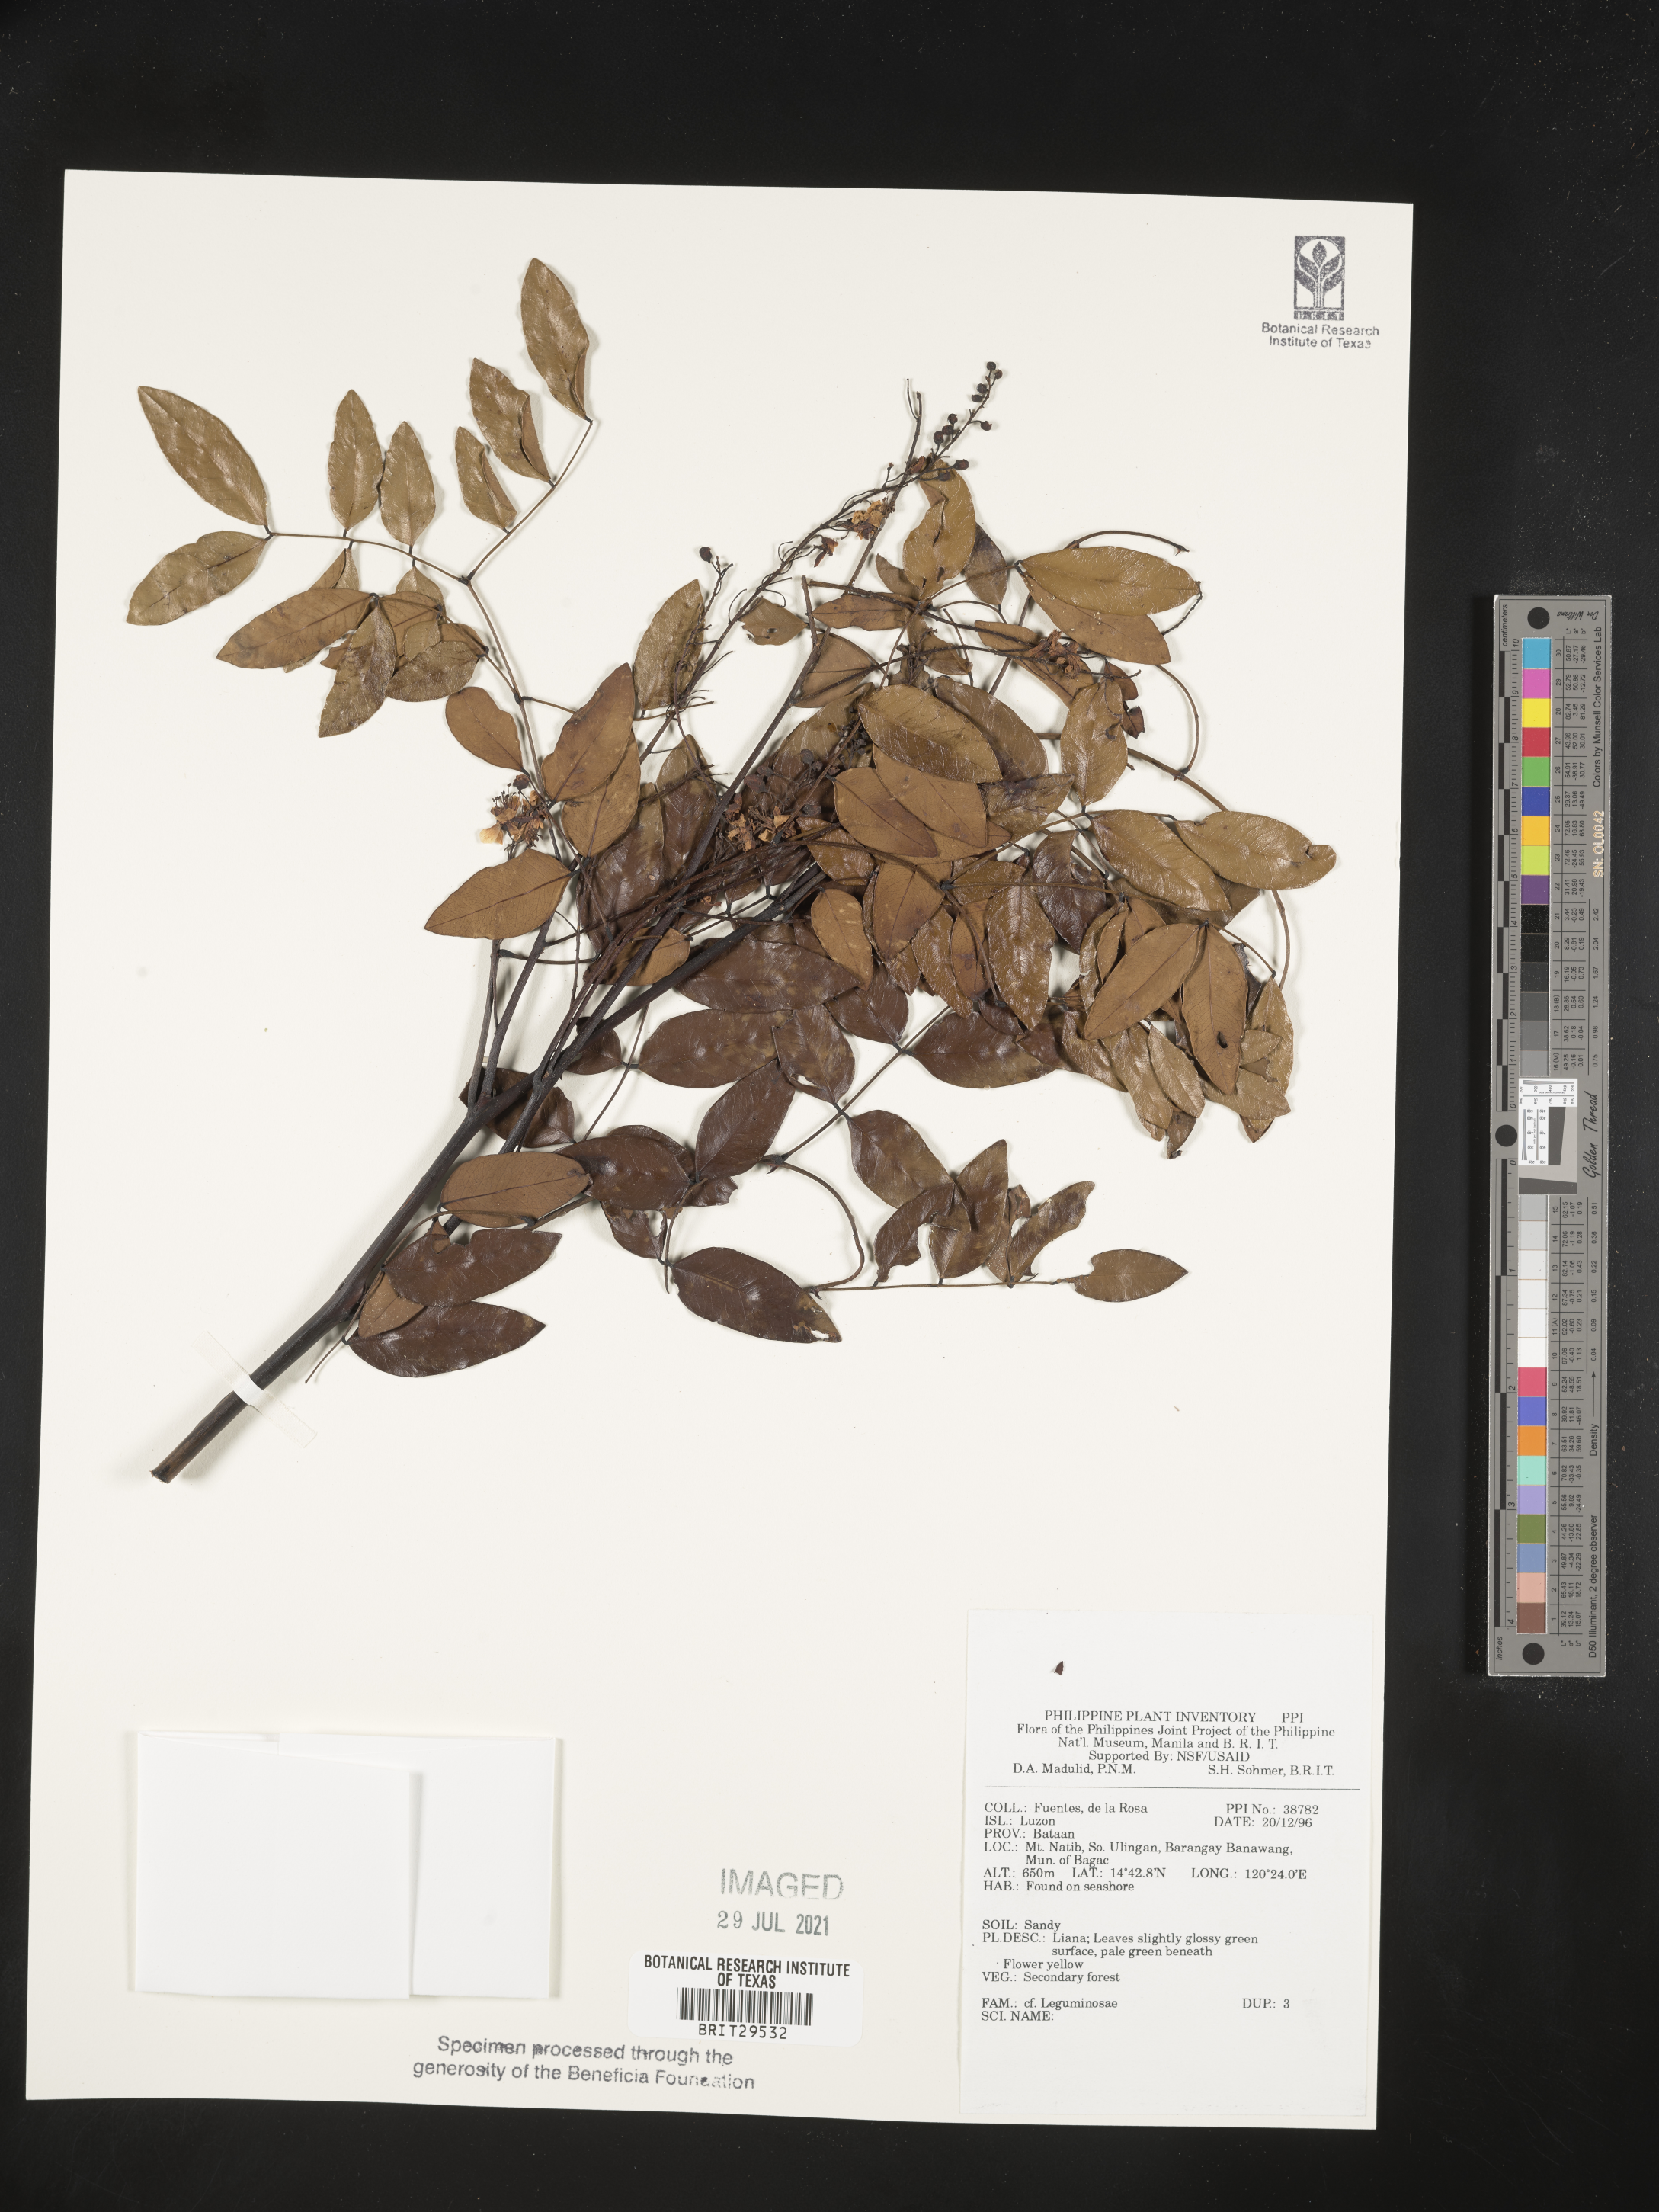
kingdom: Plantae
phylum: Tracheophyta
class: Magnoliopsida
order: Fabales
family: Fabaceae
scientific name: Fabaceae
